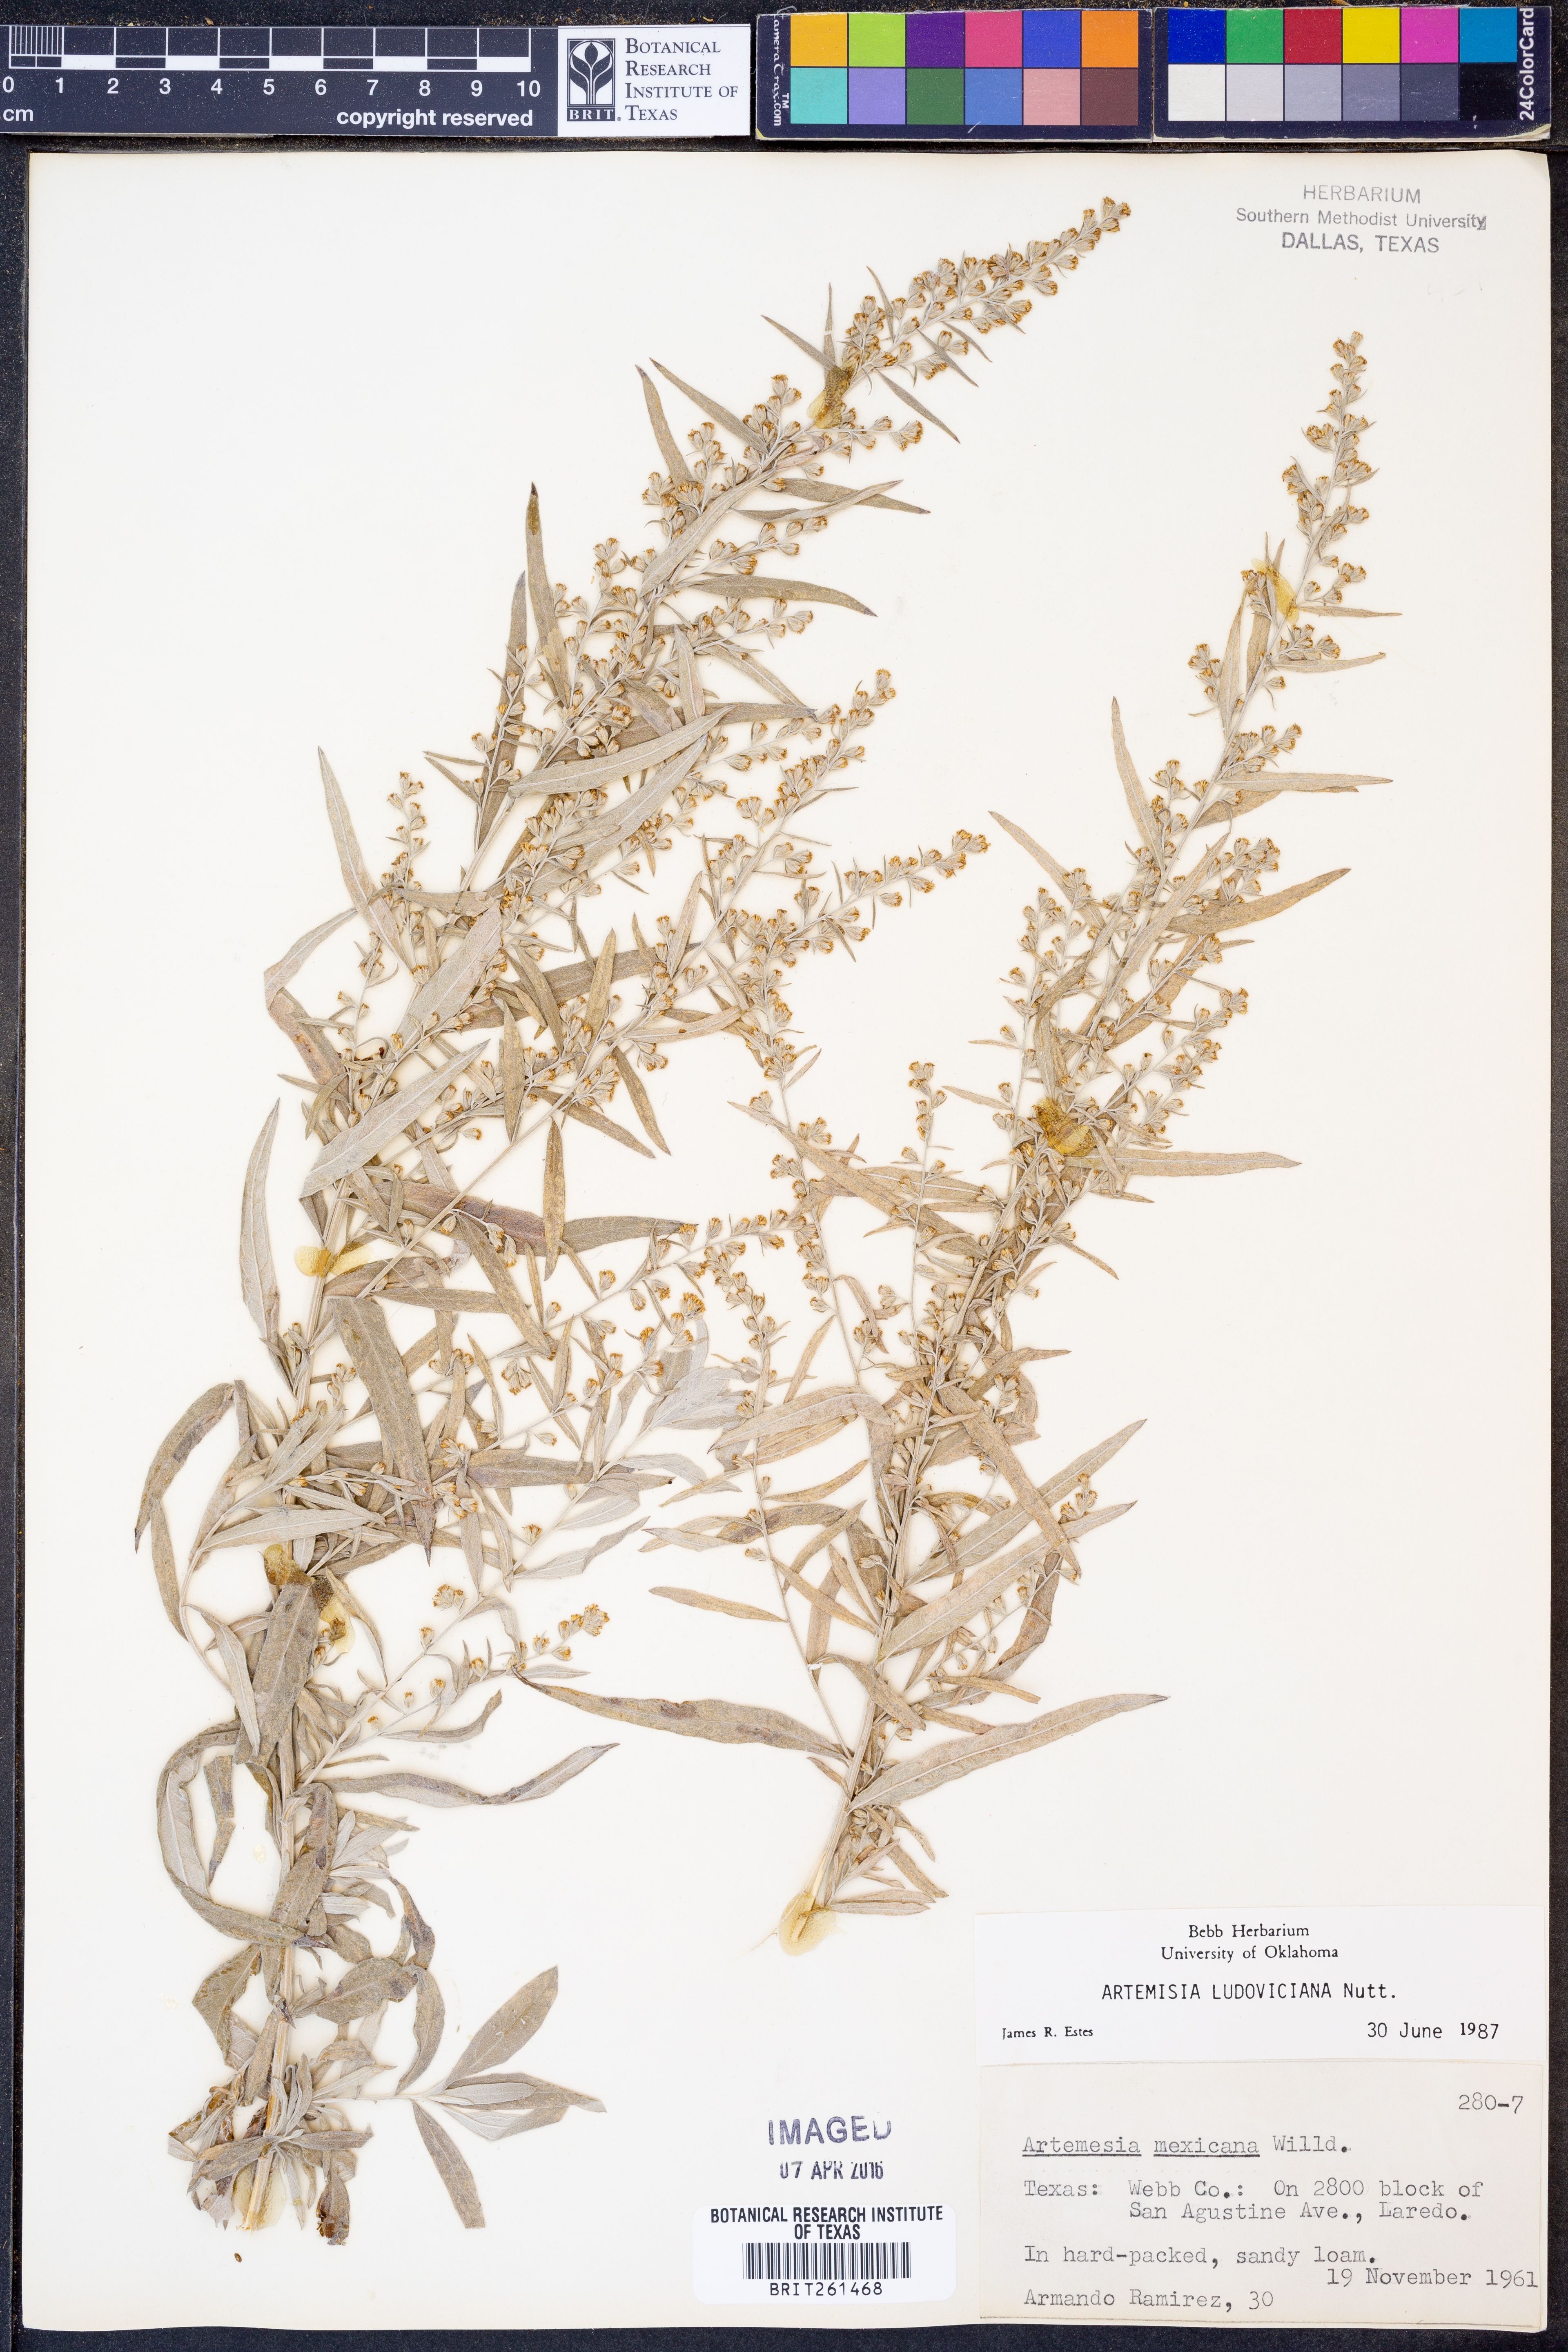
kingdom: Plantae
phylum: Tracheophyta
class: Magnoliopsida
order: Asterales
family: Asteraceae
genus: Artemisia
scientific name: Artemisia ludoviciana
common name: Western mugwort
